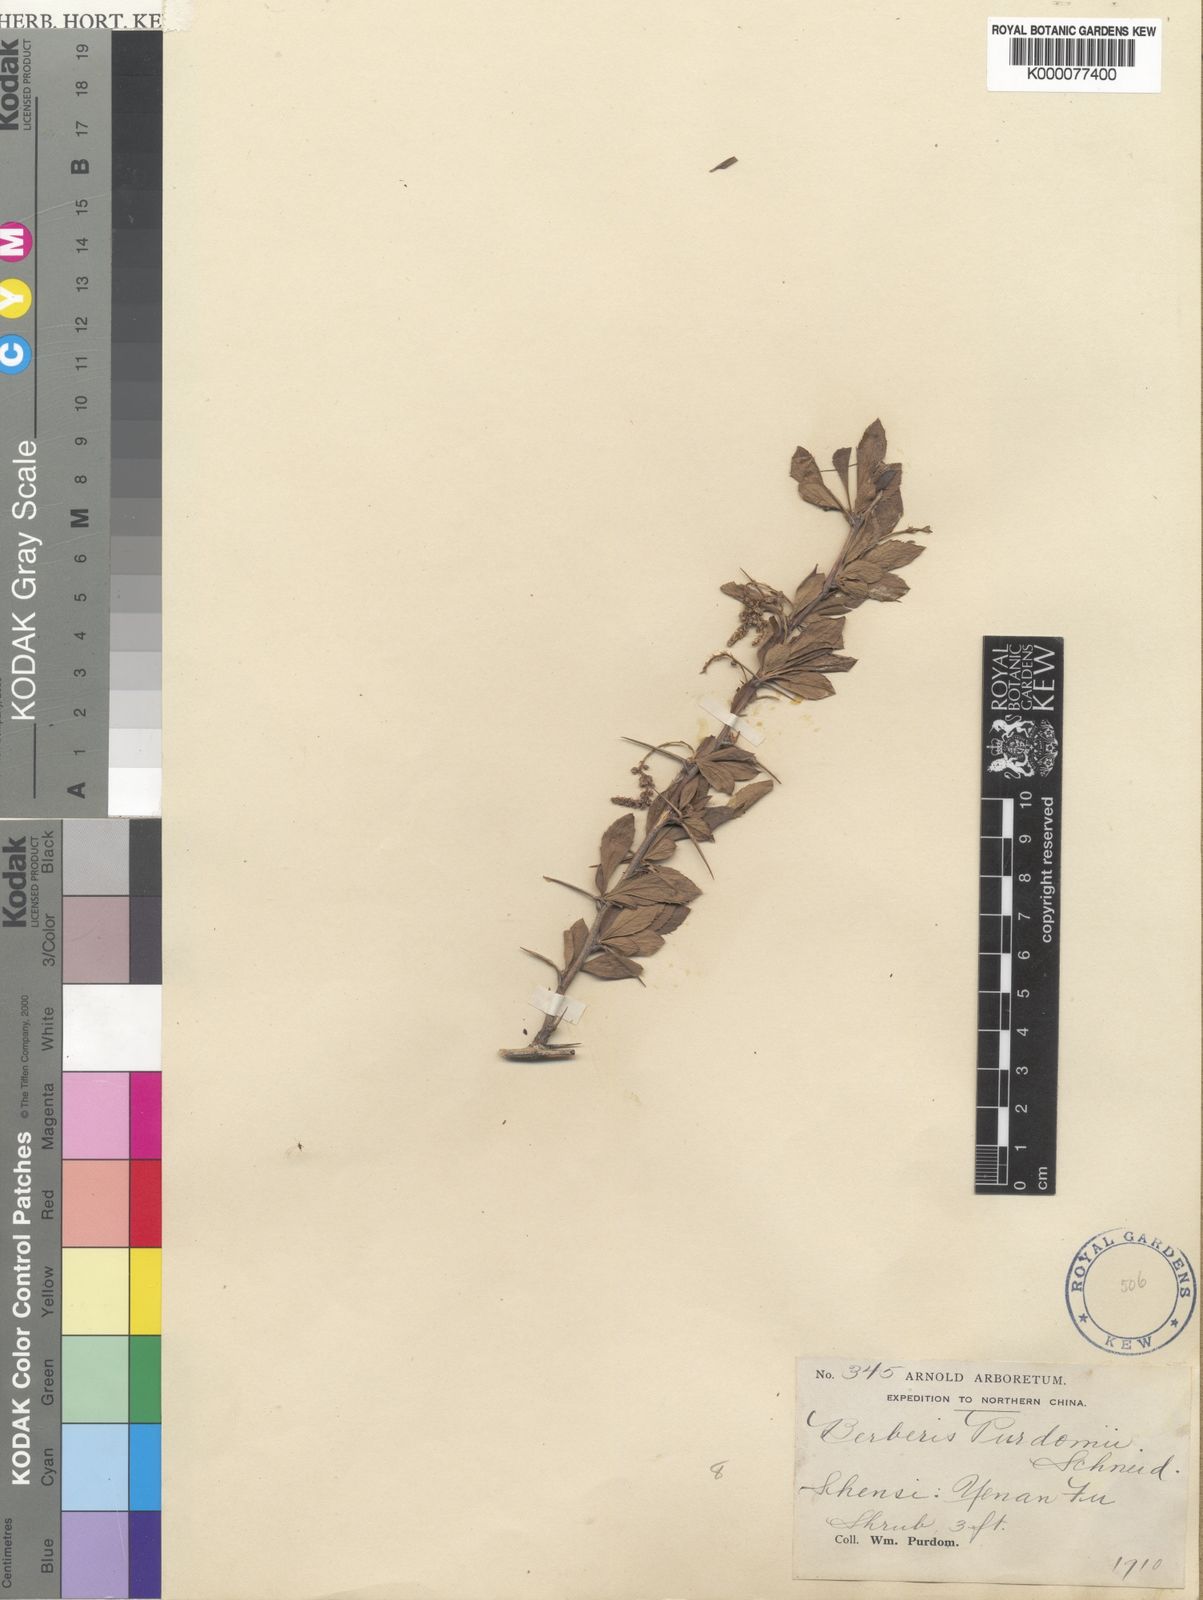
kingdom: Plantae
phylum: Tracheophyta
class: Magnoliopsida
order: Ranunculales
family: Berberidaceae
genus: Berberis
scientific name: Berberis purdomii
